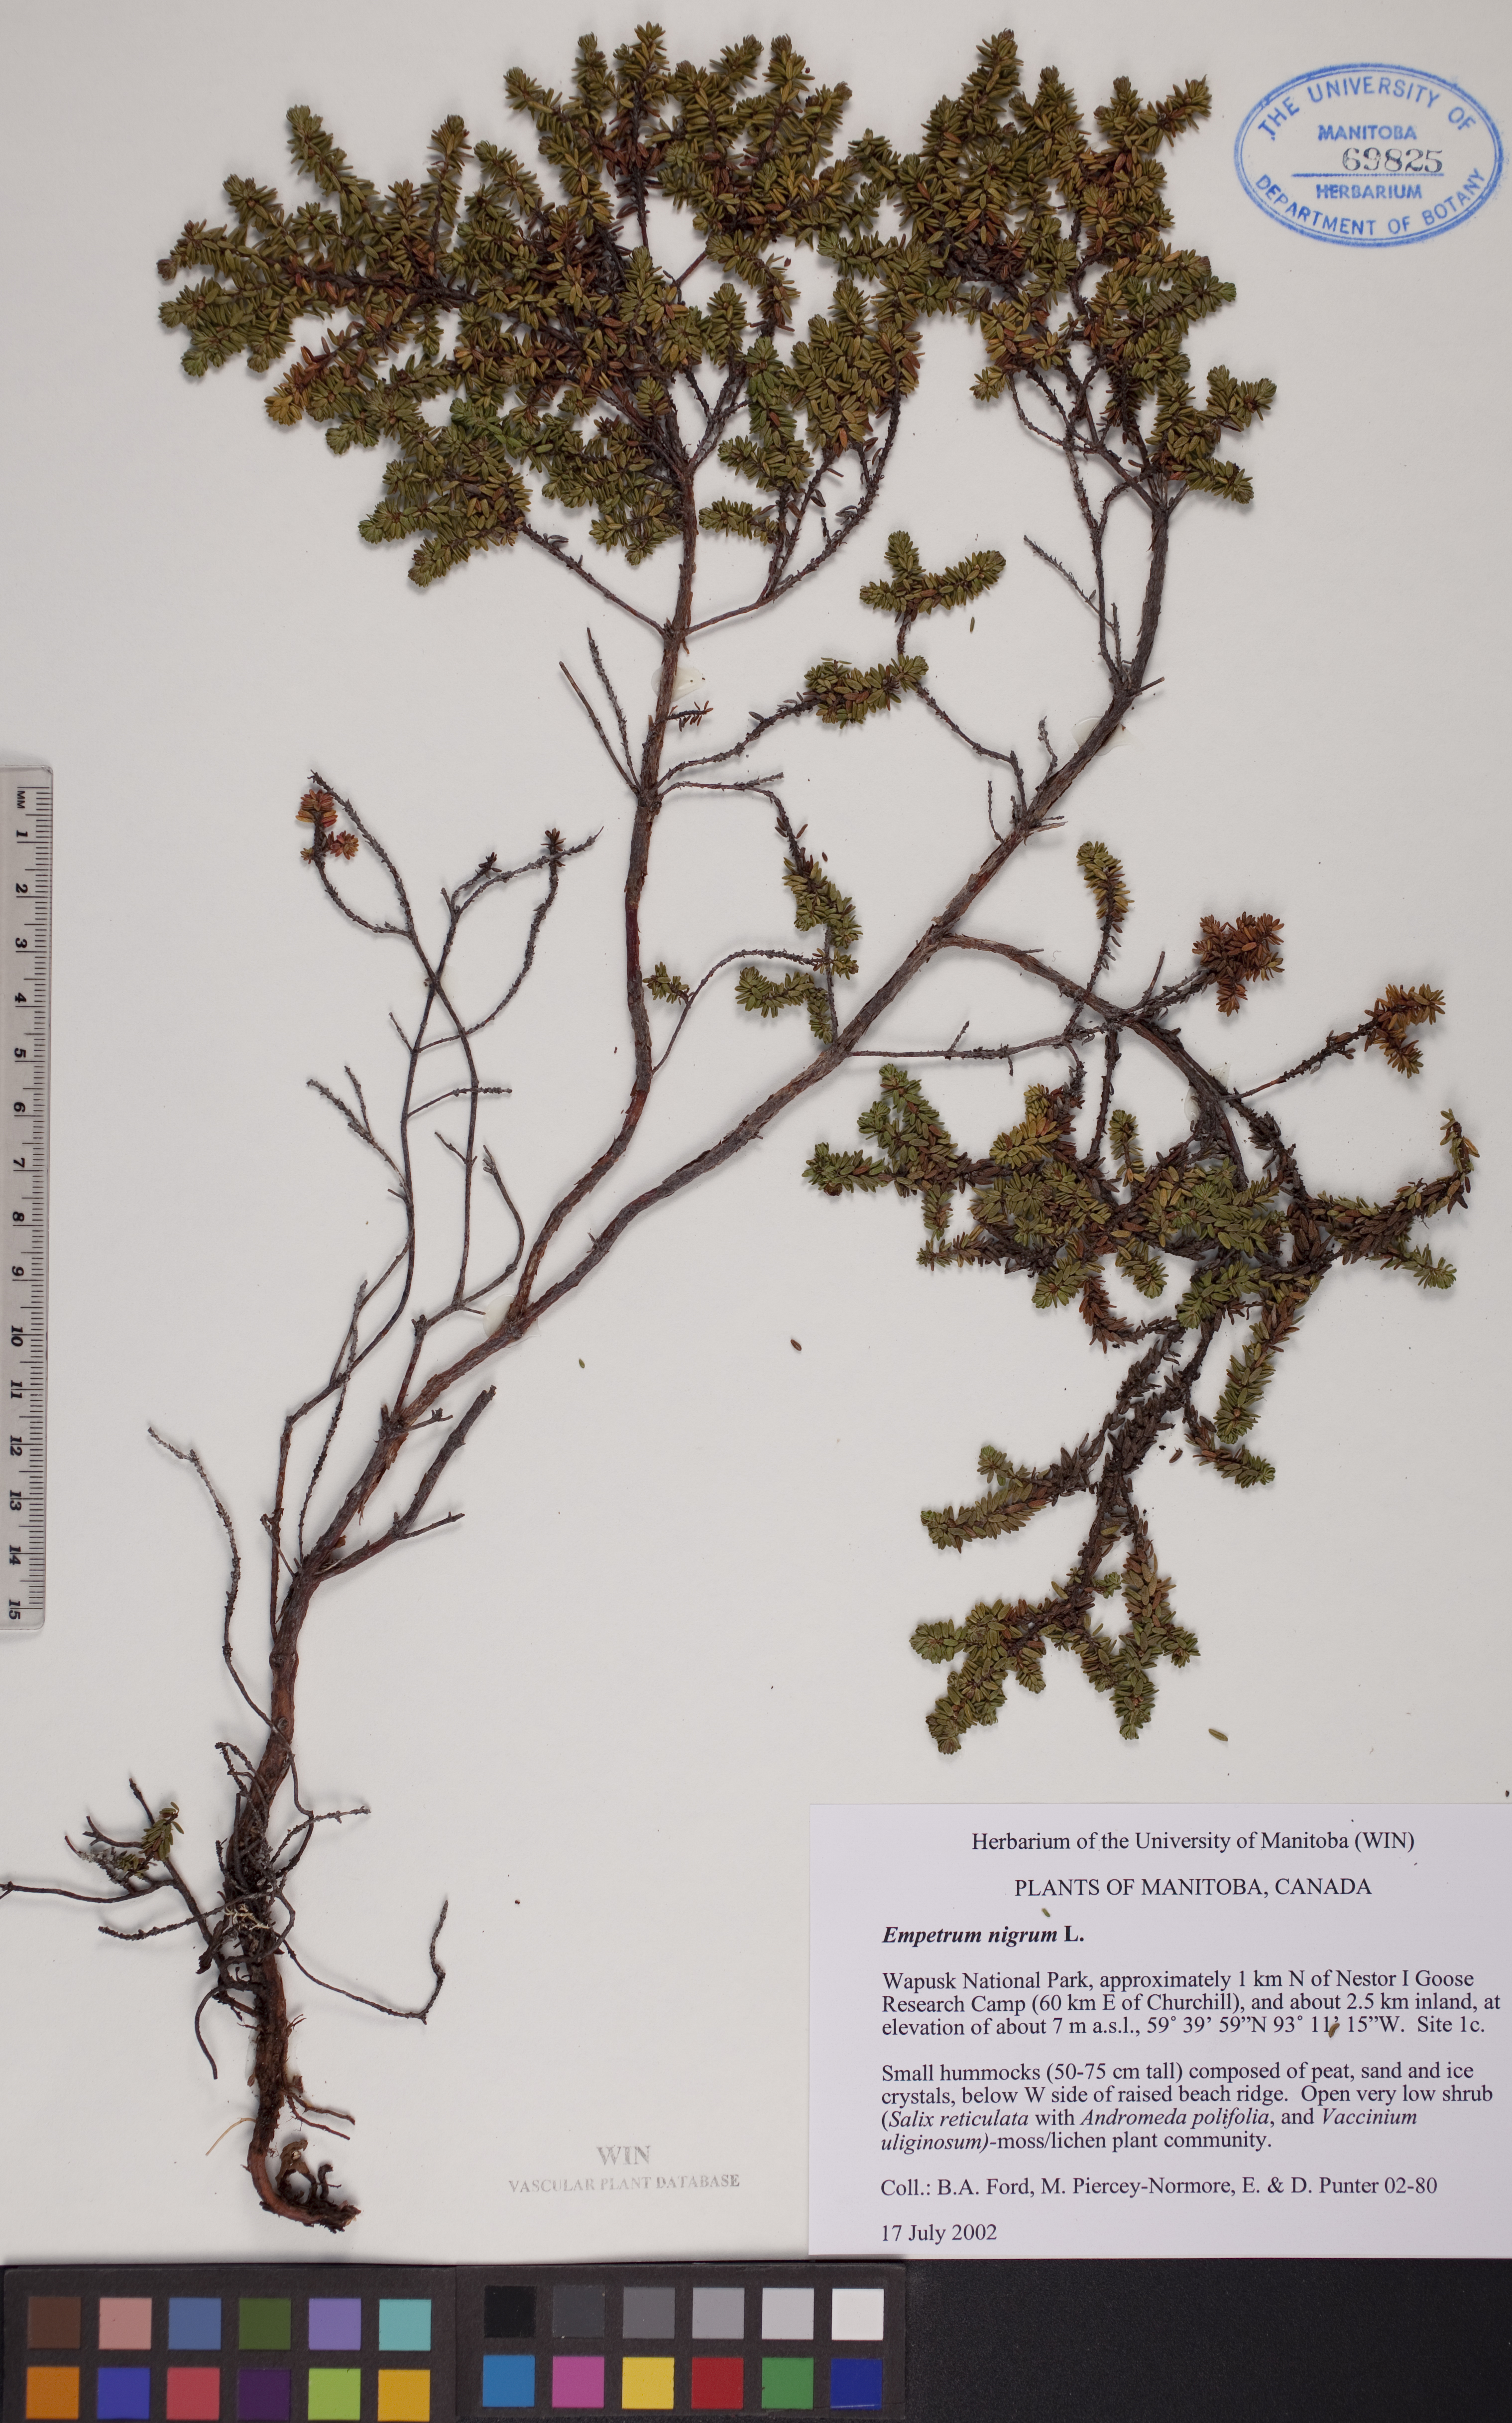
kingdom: Plantae
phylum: Tracheophyta
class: Magnoliopsida
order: Ericales
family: Ericaceae
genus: Empetrum
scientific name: Empetrum nigrum
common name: Black crowberry
